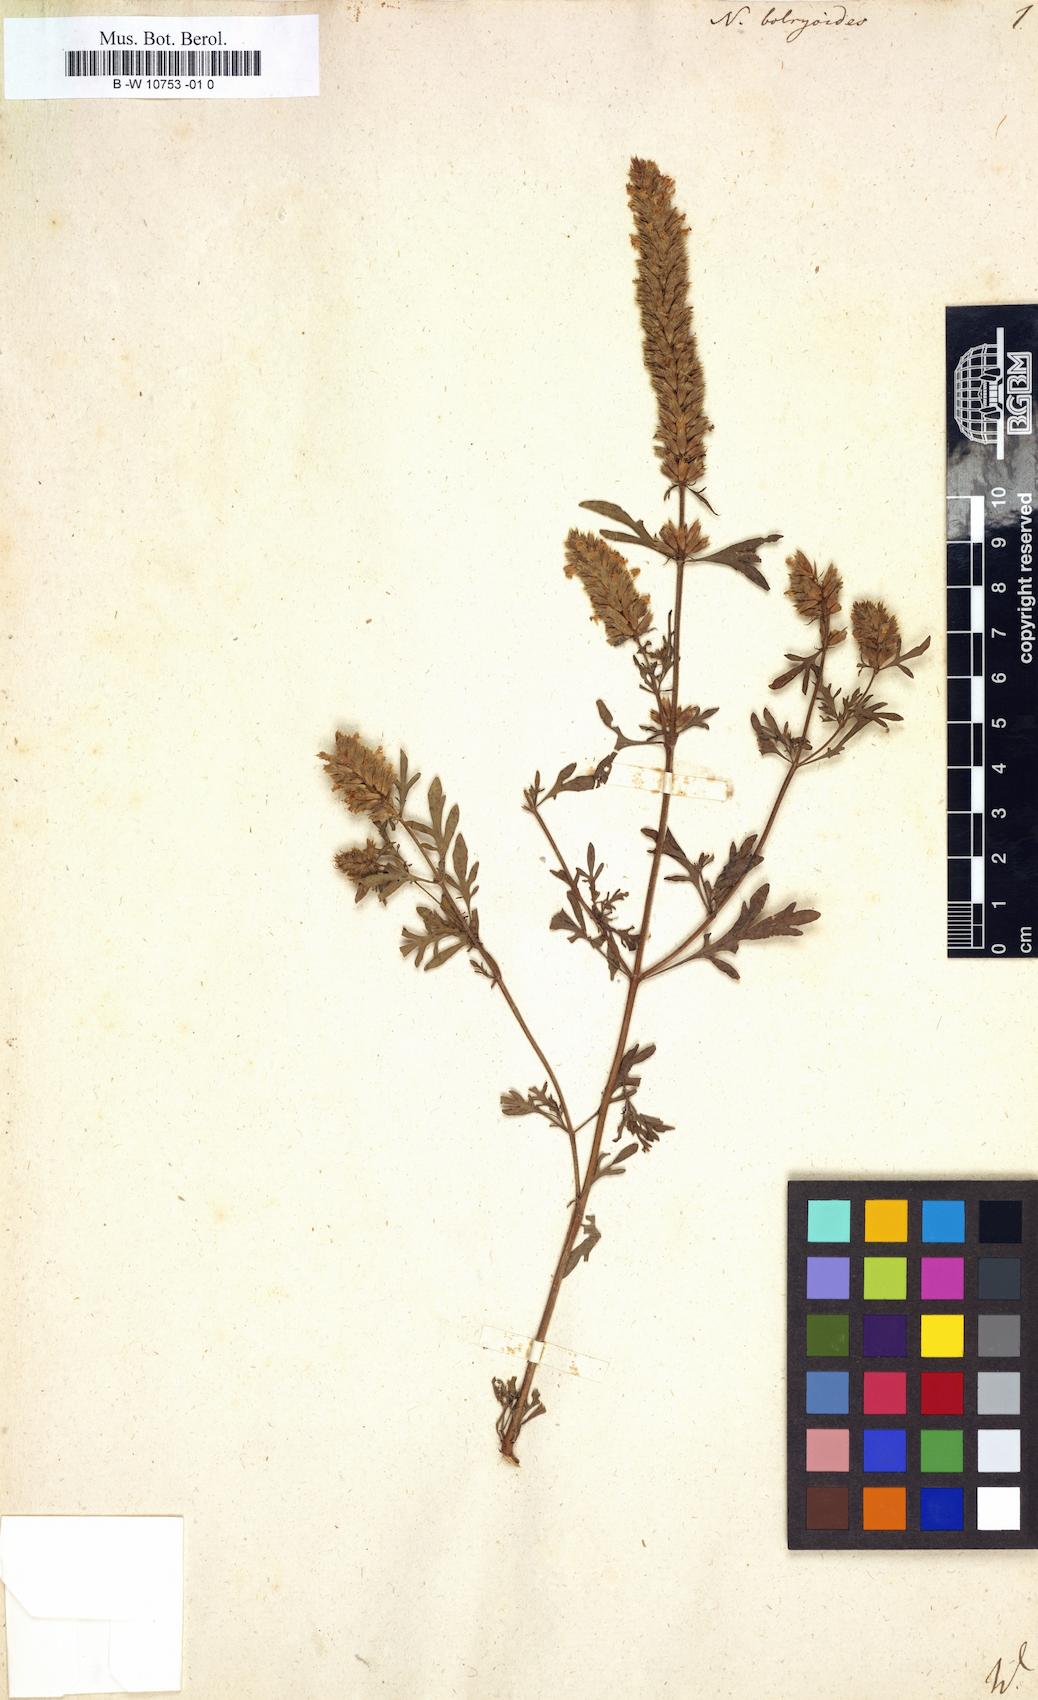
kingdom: Plantae
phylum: Tracheophyta
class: Magnoliopsida
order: Lamiales
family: Lamiaceae
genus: Nepeta
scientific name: Nepeta annua
